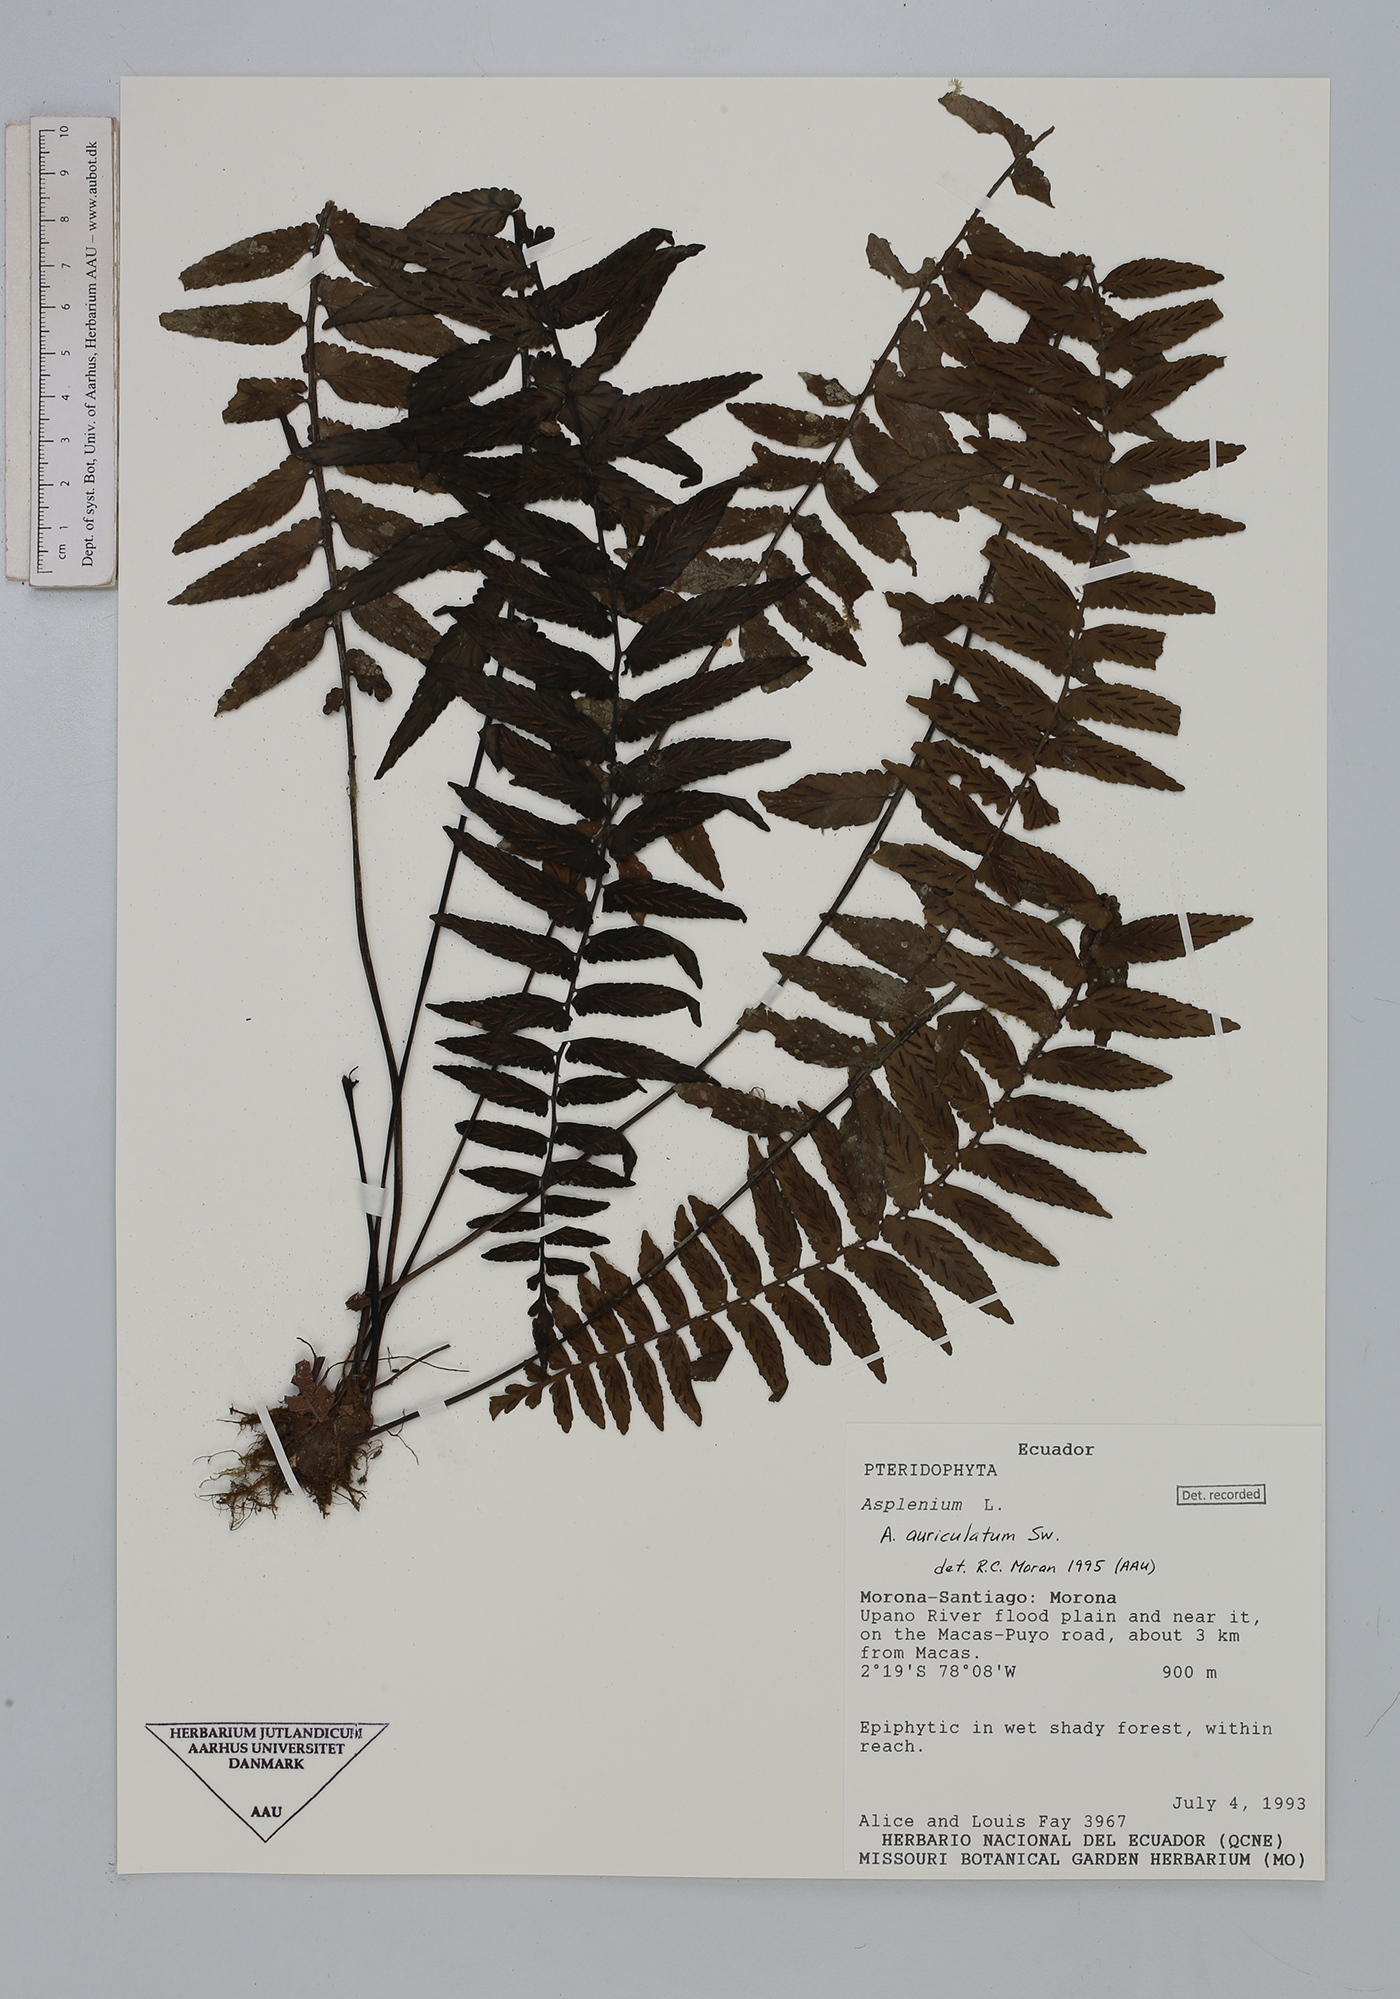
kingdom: Plantae
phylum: Tracheophyta
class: Polypodiopsida
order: Polypodiales
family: Aspleniaceae
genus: Asplenium
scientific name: Asplenium auriculatum
